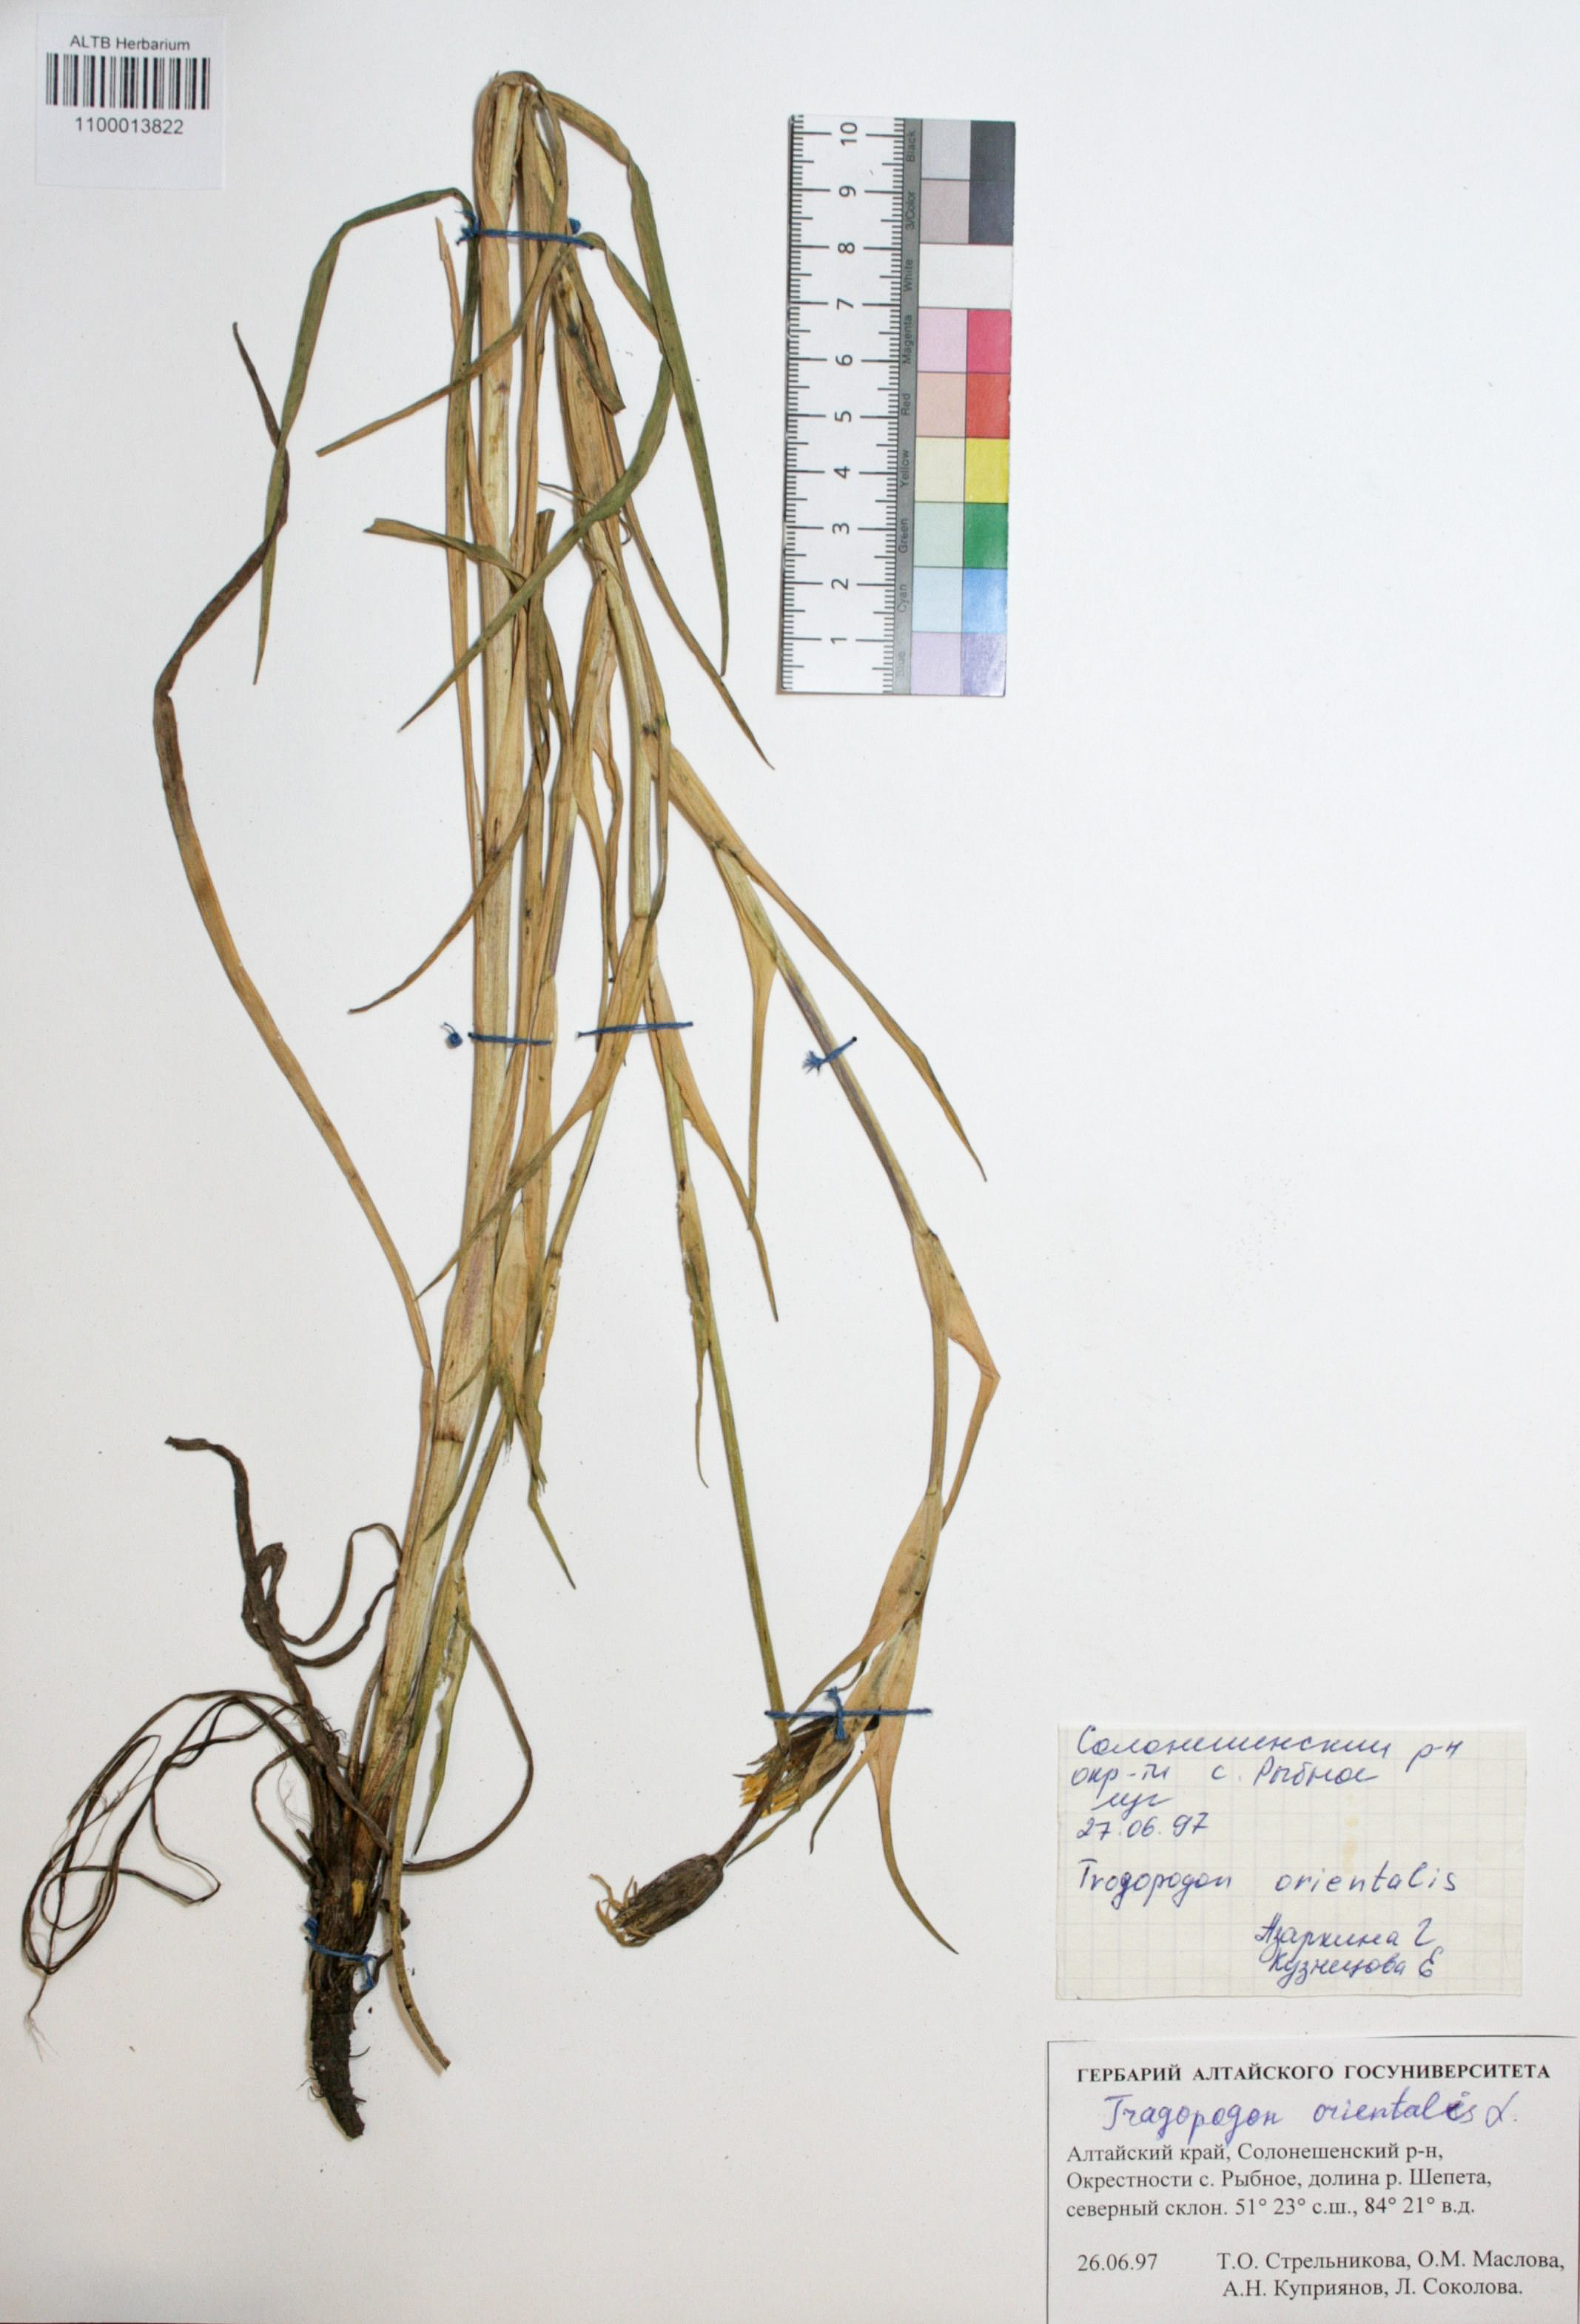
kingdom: Plantae
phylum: Tracheophyta
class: Magnoliopsida
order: Asterales
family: Asteraceae
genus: Tragopogon
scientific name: Tragopogon orientalis
